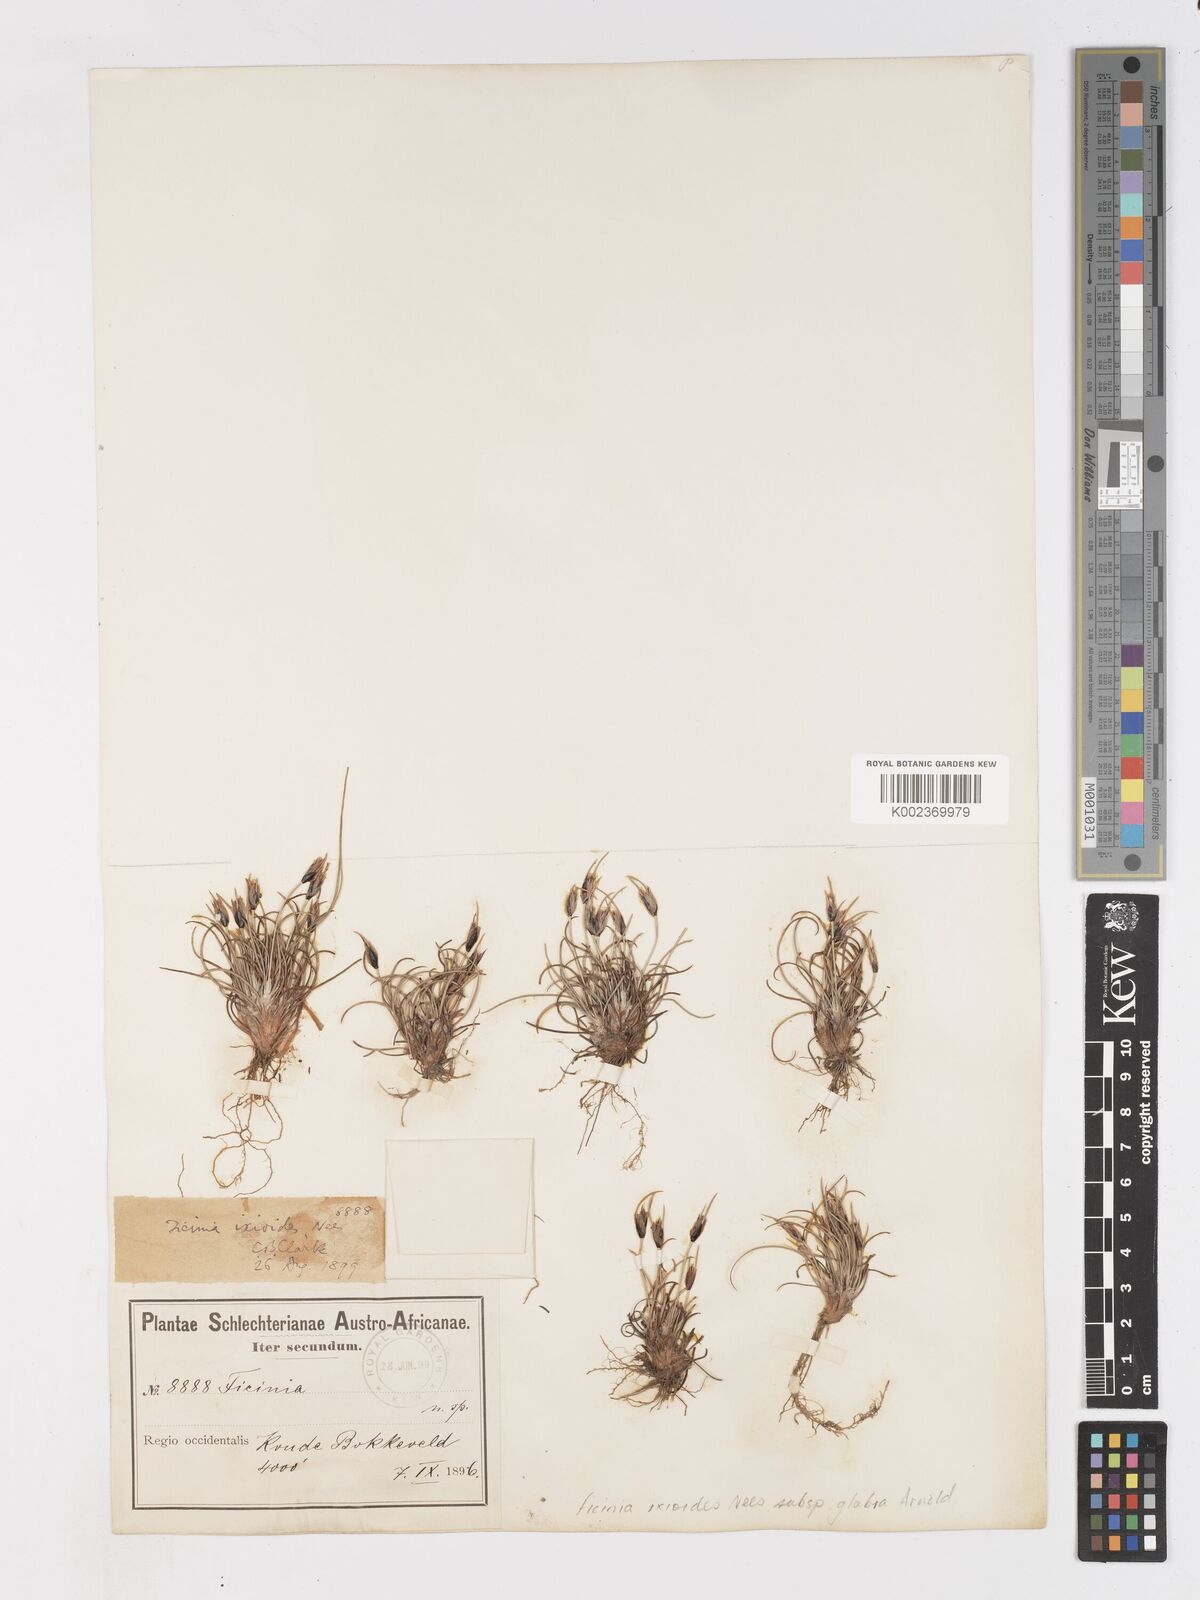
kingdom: Plantae
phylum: Tracheophyta
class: Liliopsida
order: Poales
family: Cyperaceae
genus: Ficinia
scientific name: Ficinia ixioides
